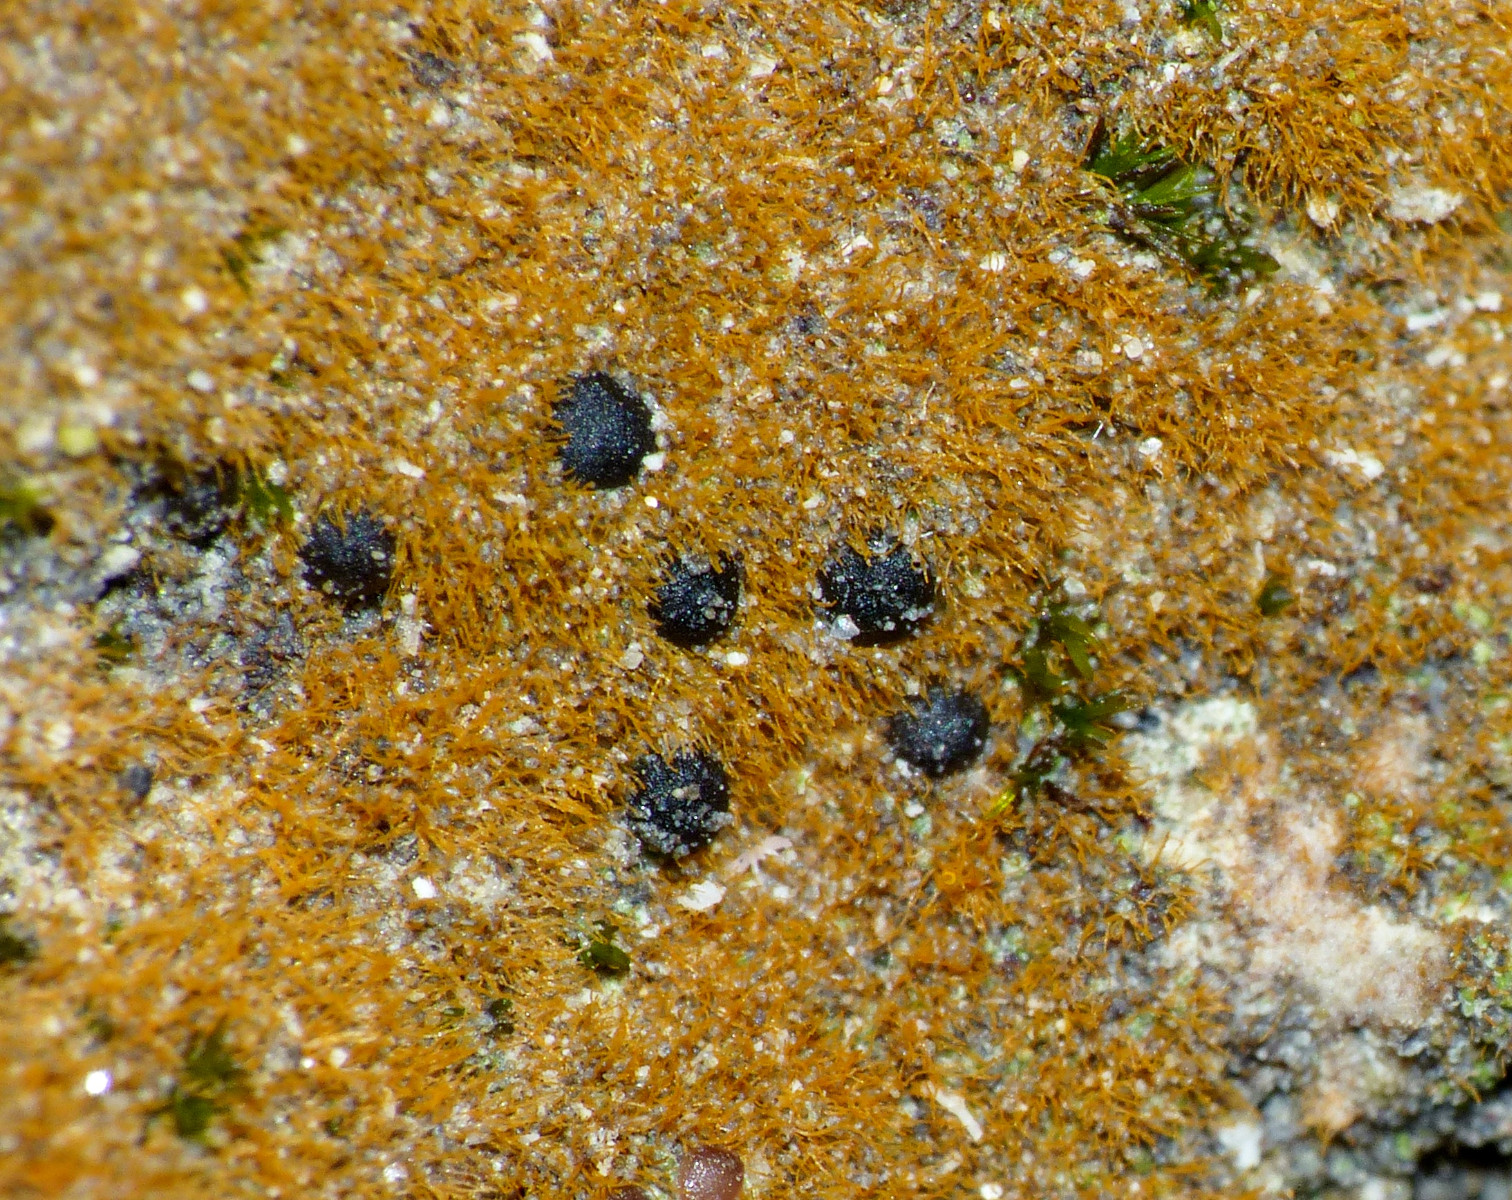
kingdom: Fungi
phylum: Ascomycota
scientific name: Ascomycota
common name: sæksvampe
